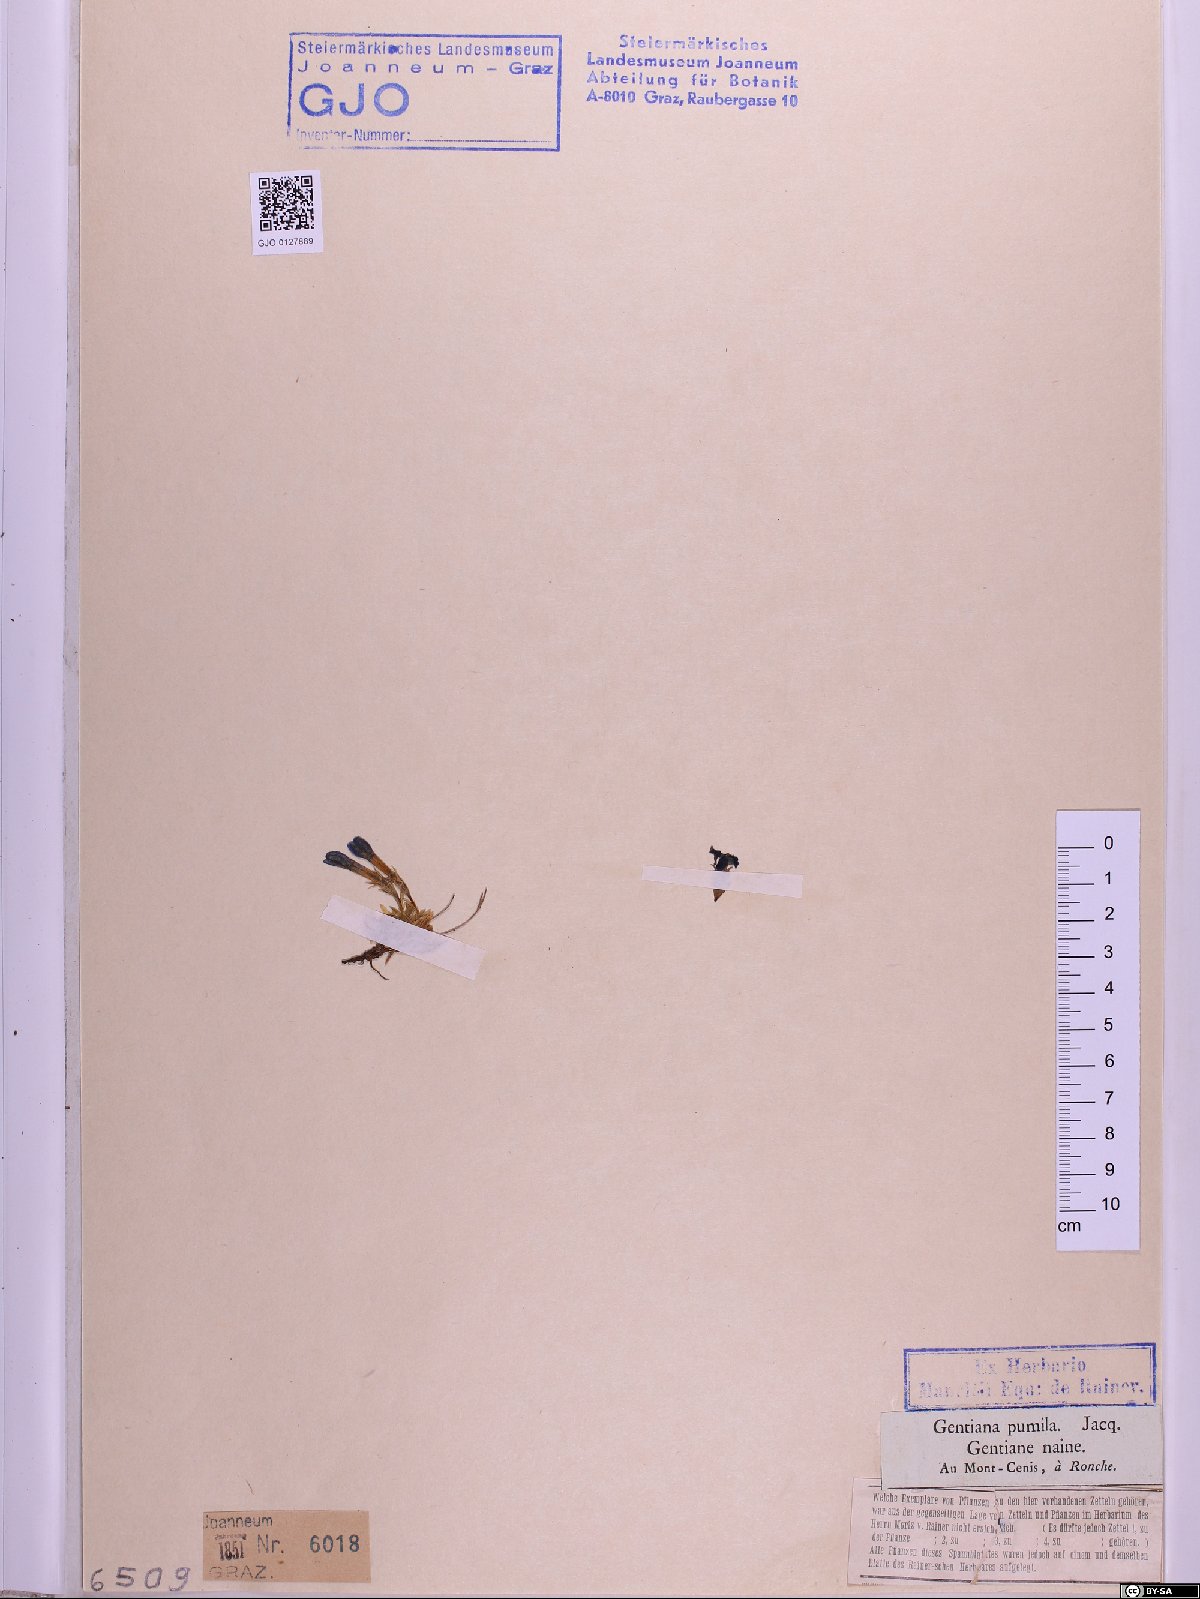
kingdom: Plantae
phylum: Tracheophyta
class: Magnoliopsida
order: Gentianales
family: Gentianaceae
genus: Gentiana
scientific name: Gentiana pumila
